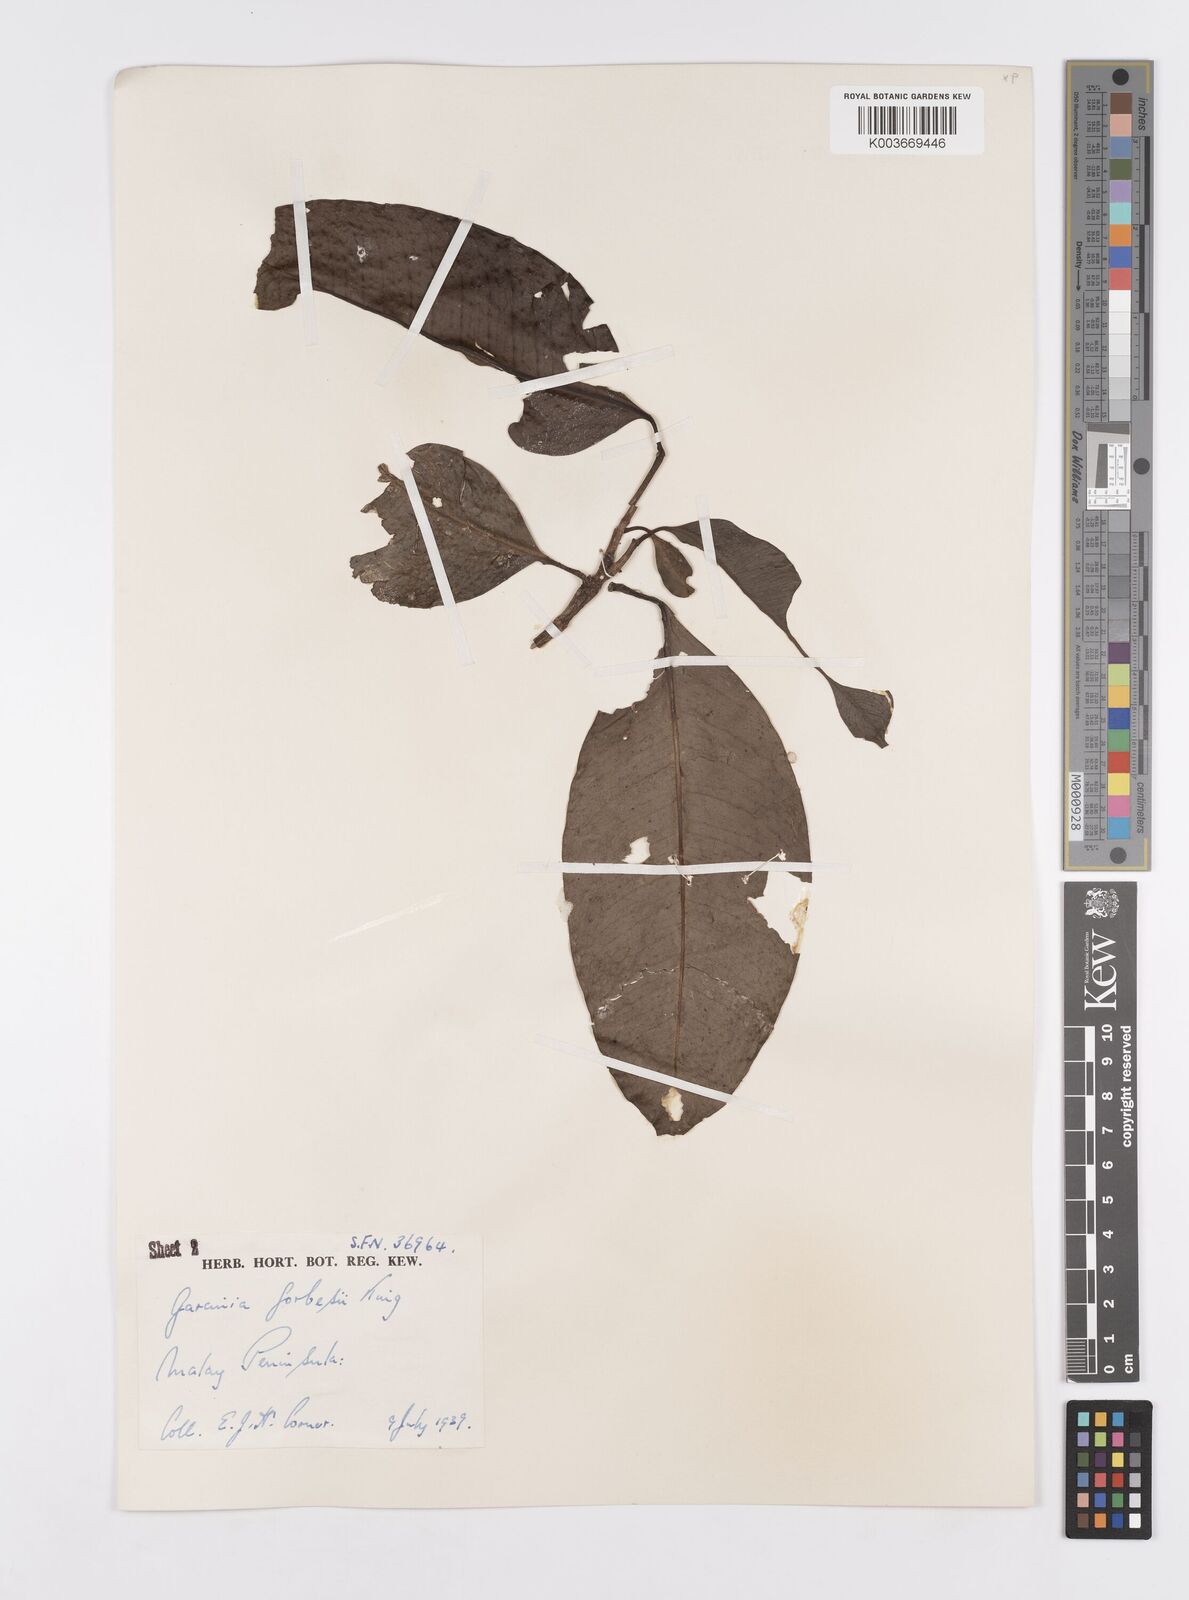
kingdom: Plantae
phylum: Tracheophyta
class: Magnoliopsida
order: Malpighiales
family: Clusiaceae
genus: Garcinia
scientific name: Garcinia forbesii
